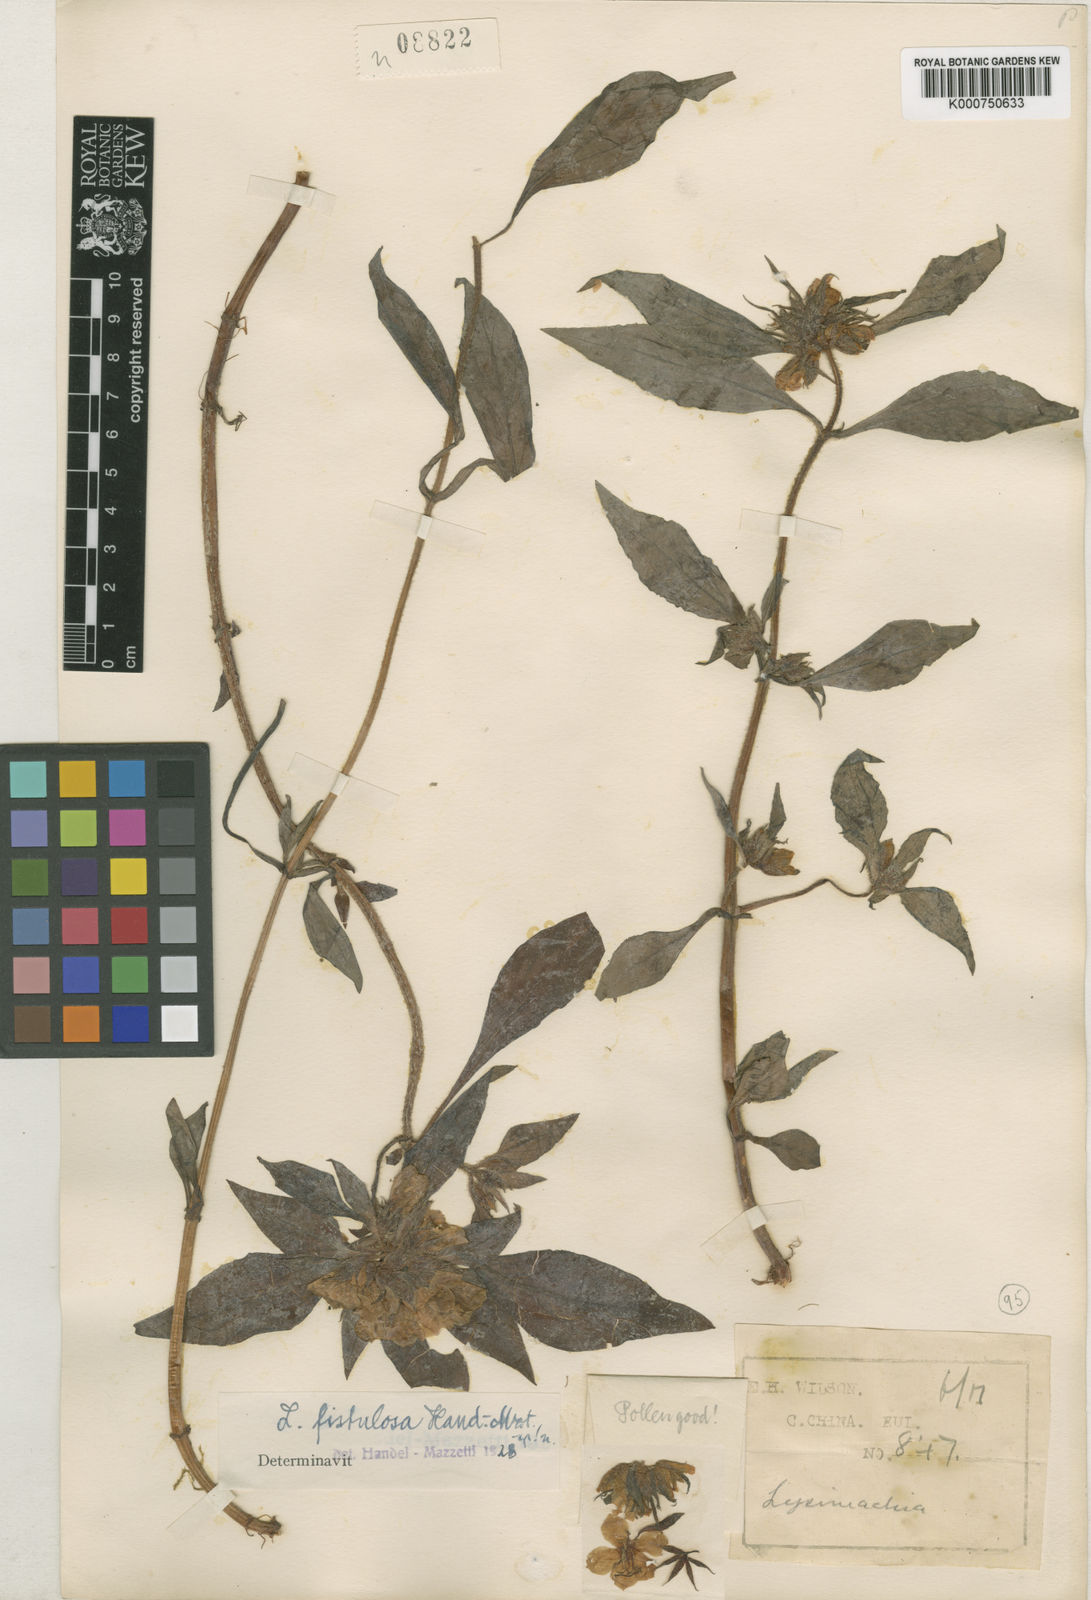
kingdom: Plantae
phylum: Tracheophyta
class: Magnoliopsida
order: Ericales
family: Primulaceae
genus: Lysimachia
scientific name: Lysimachia fistulosa
